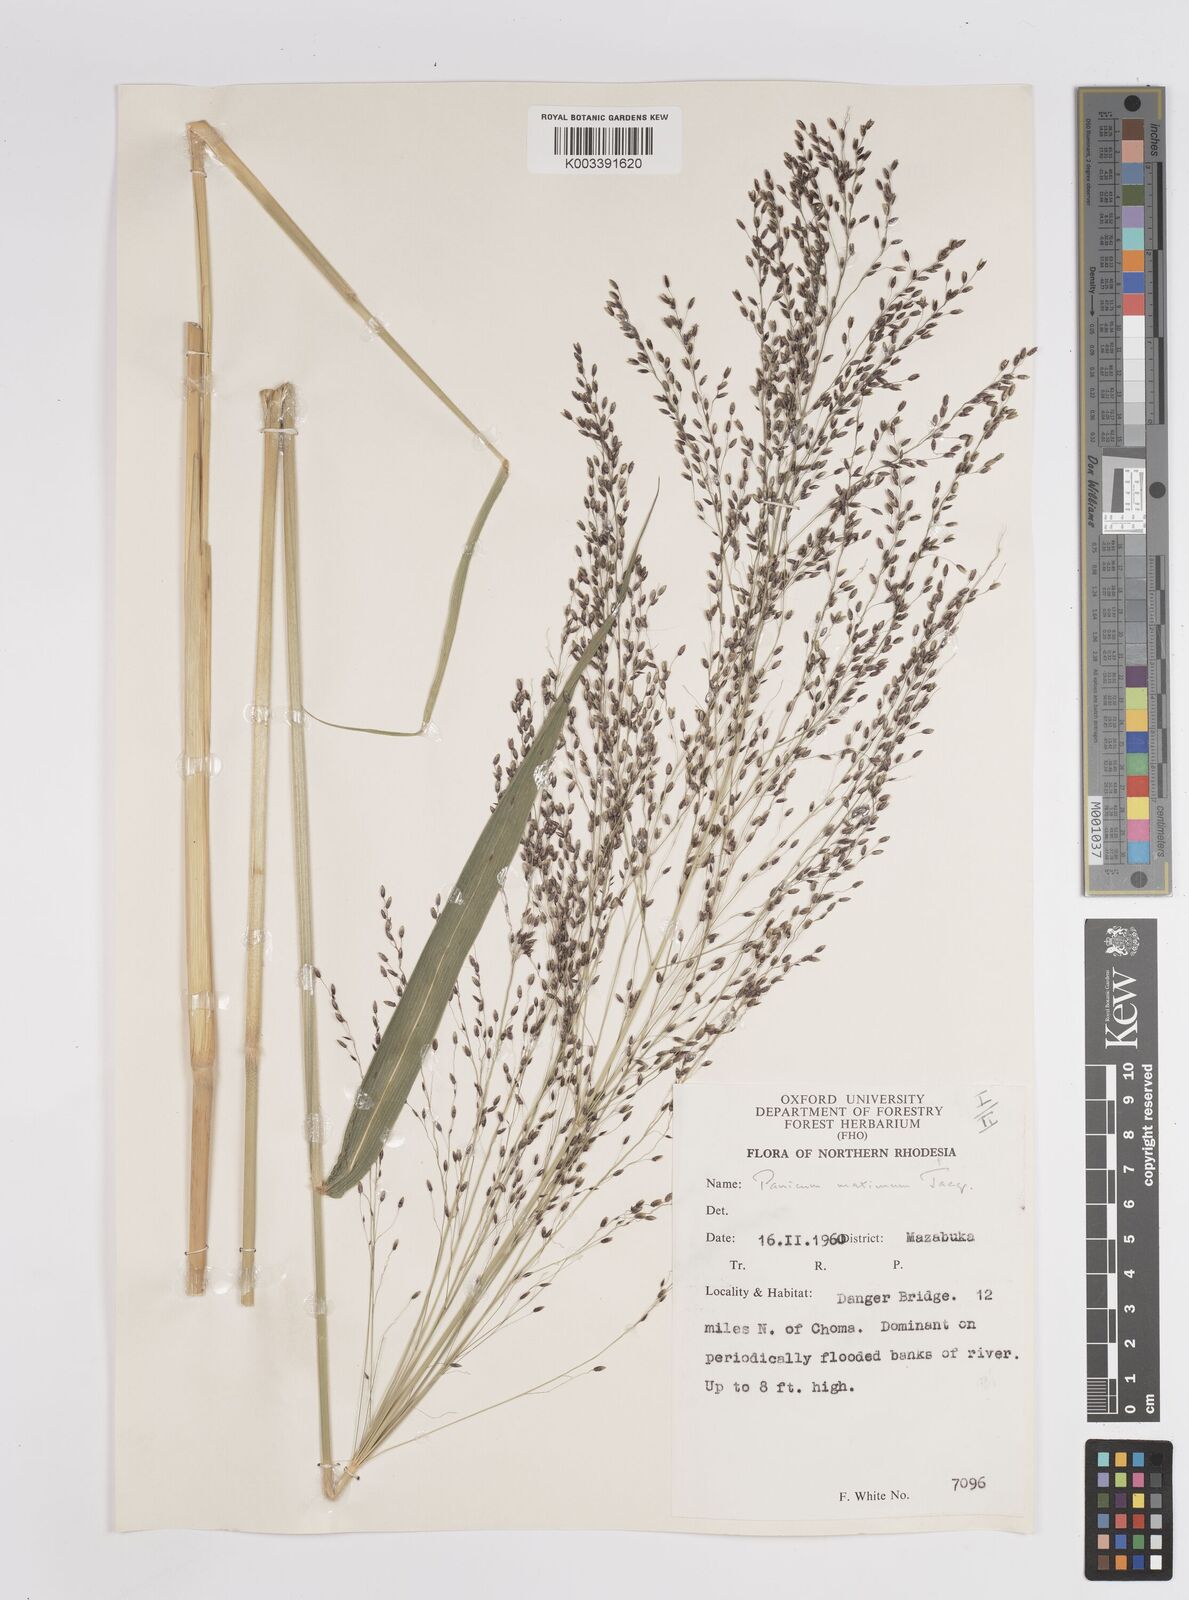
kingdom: Plantae
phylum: Tracheophyta
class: Liliopsida
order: Poales
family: Poaceae
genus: Megathyrsus
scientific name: Megathyrsus maximus
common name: Guineagrass
